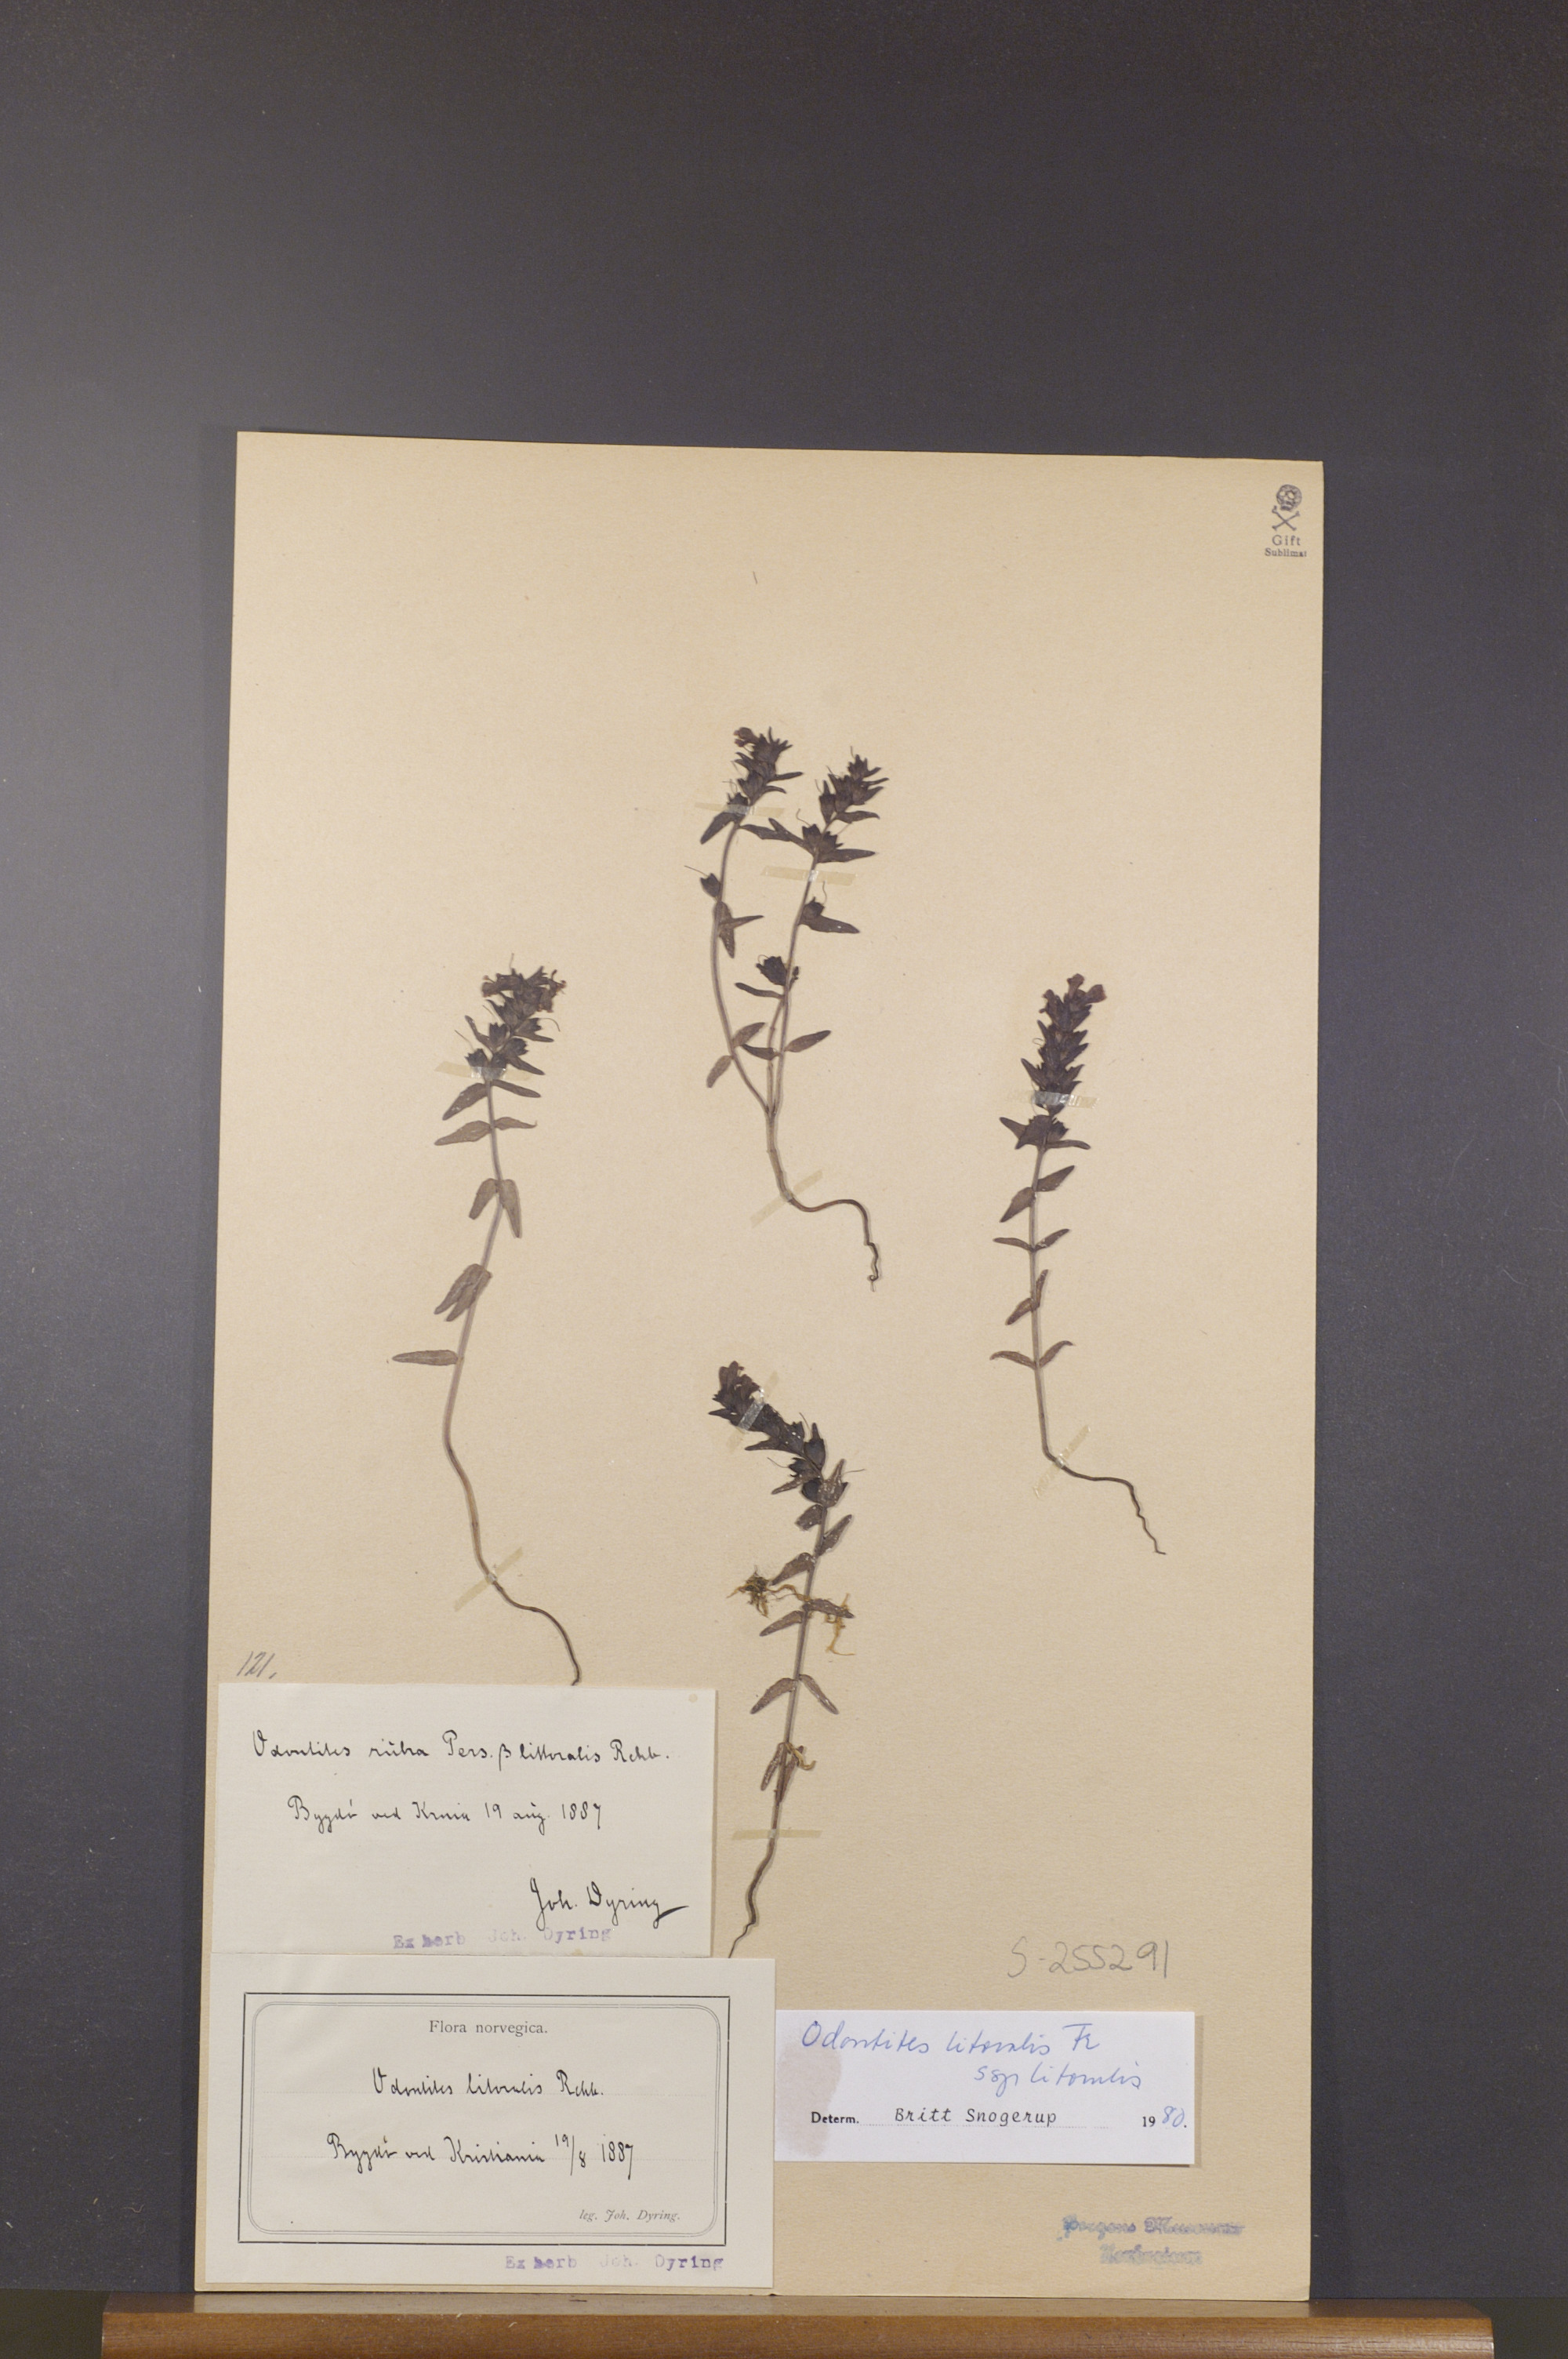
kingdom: Plantae
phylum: Tracheophyta
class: Magnoliopsida
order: Lamiales
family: Orobanchaceae
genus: Odontites
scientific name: Odontites litoralis
